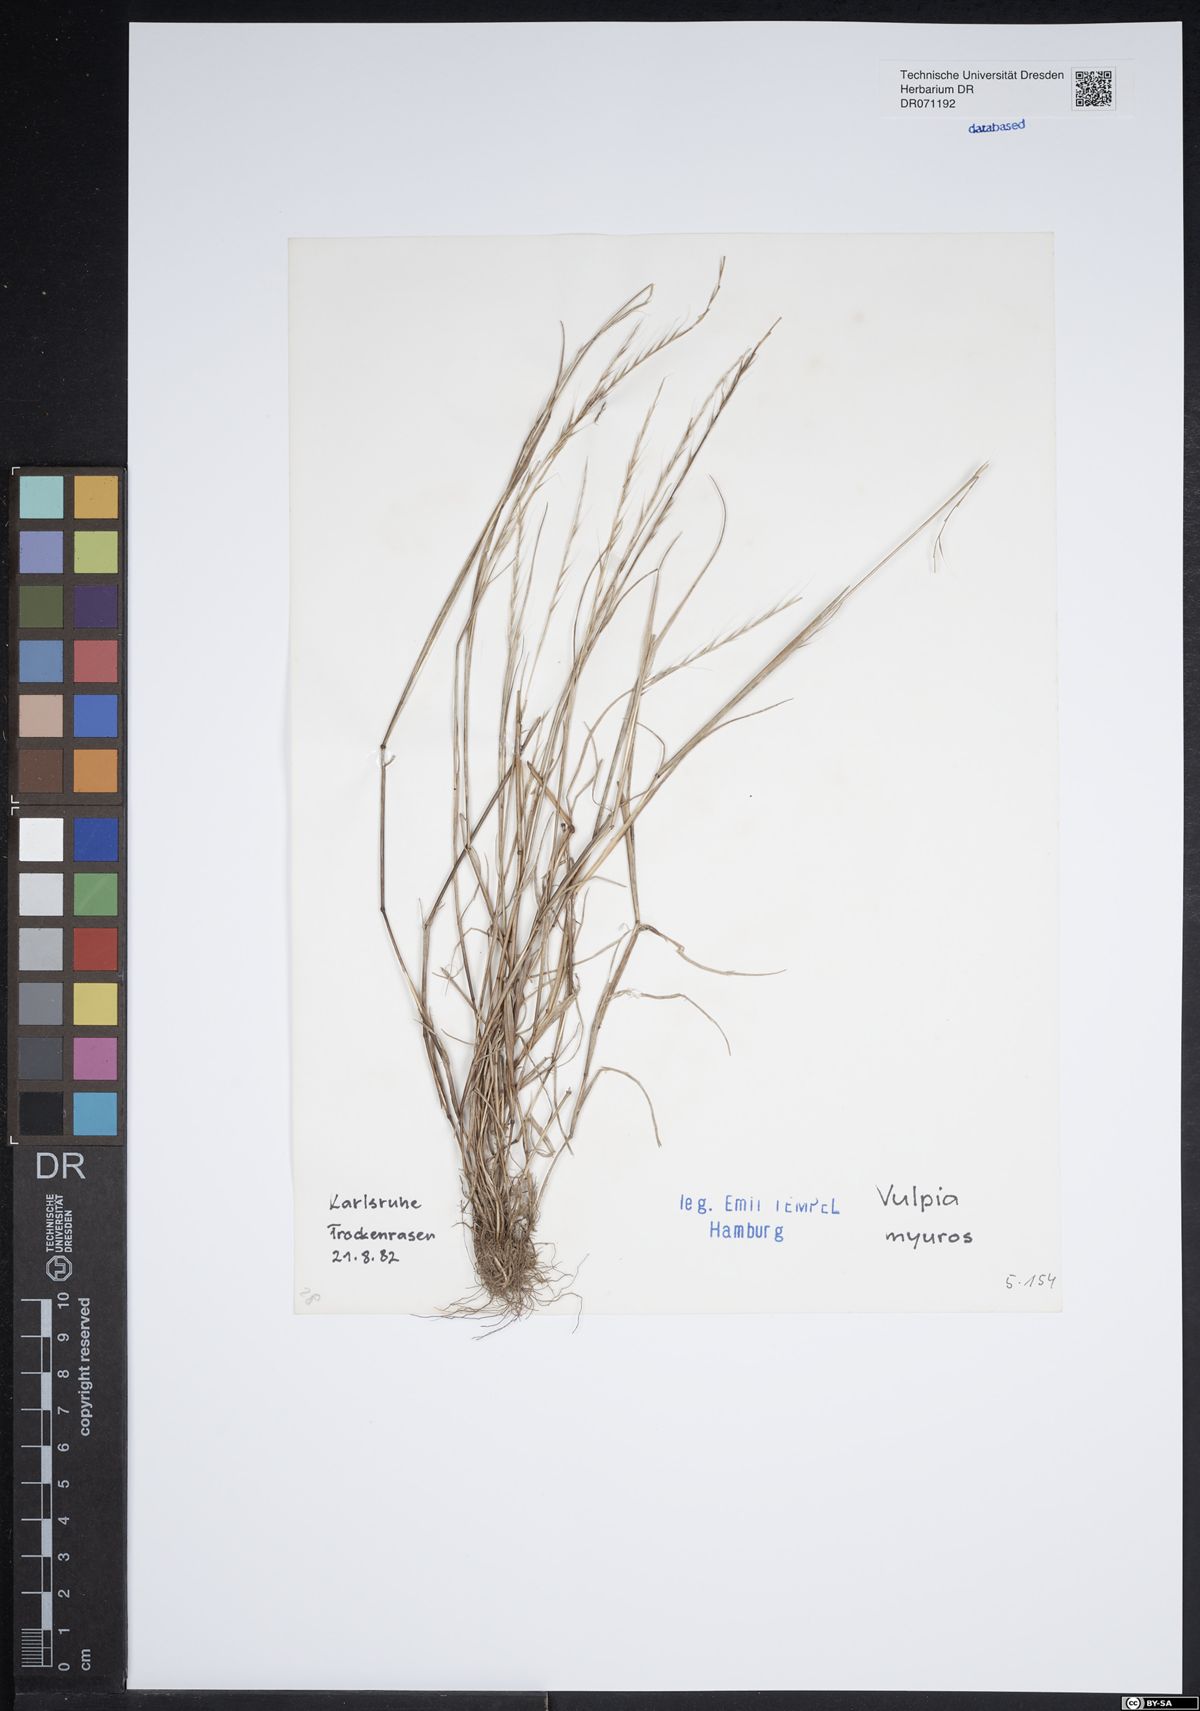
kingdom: Plantae
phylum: Tracheophyta
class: Liliopsida
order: Poales
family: Poaceae
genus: Festuca
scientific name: Festuca myuros
